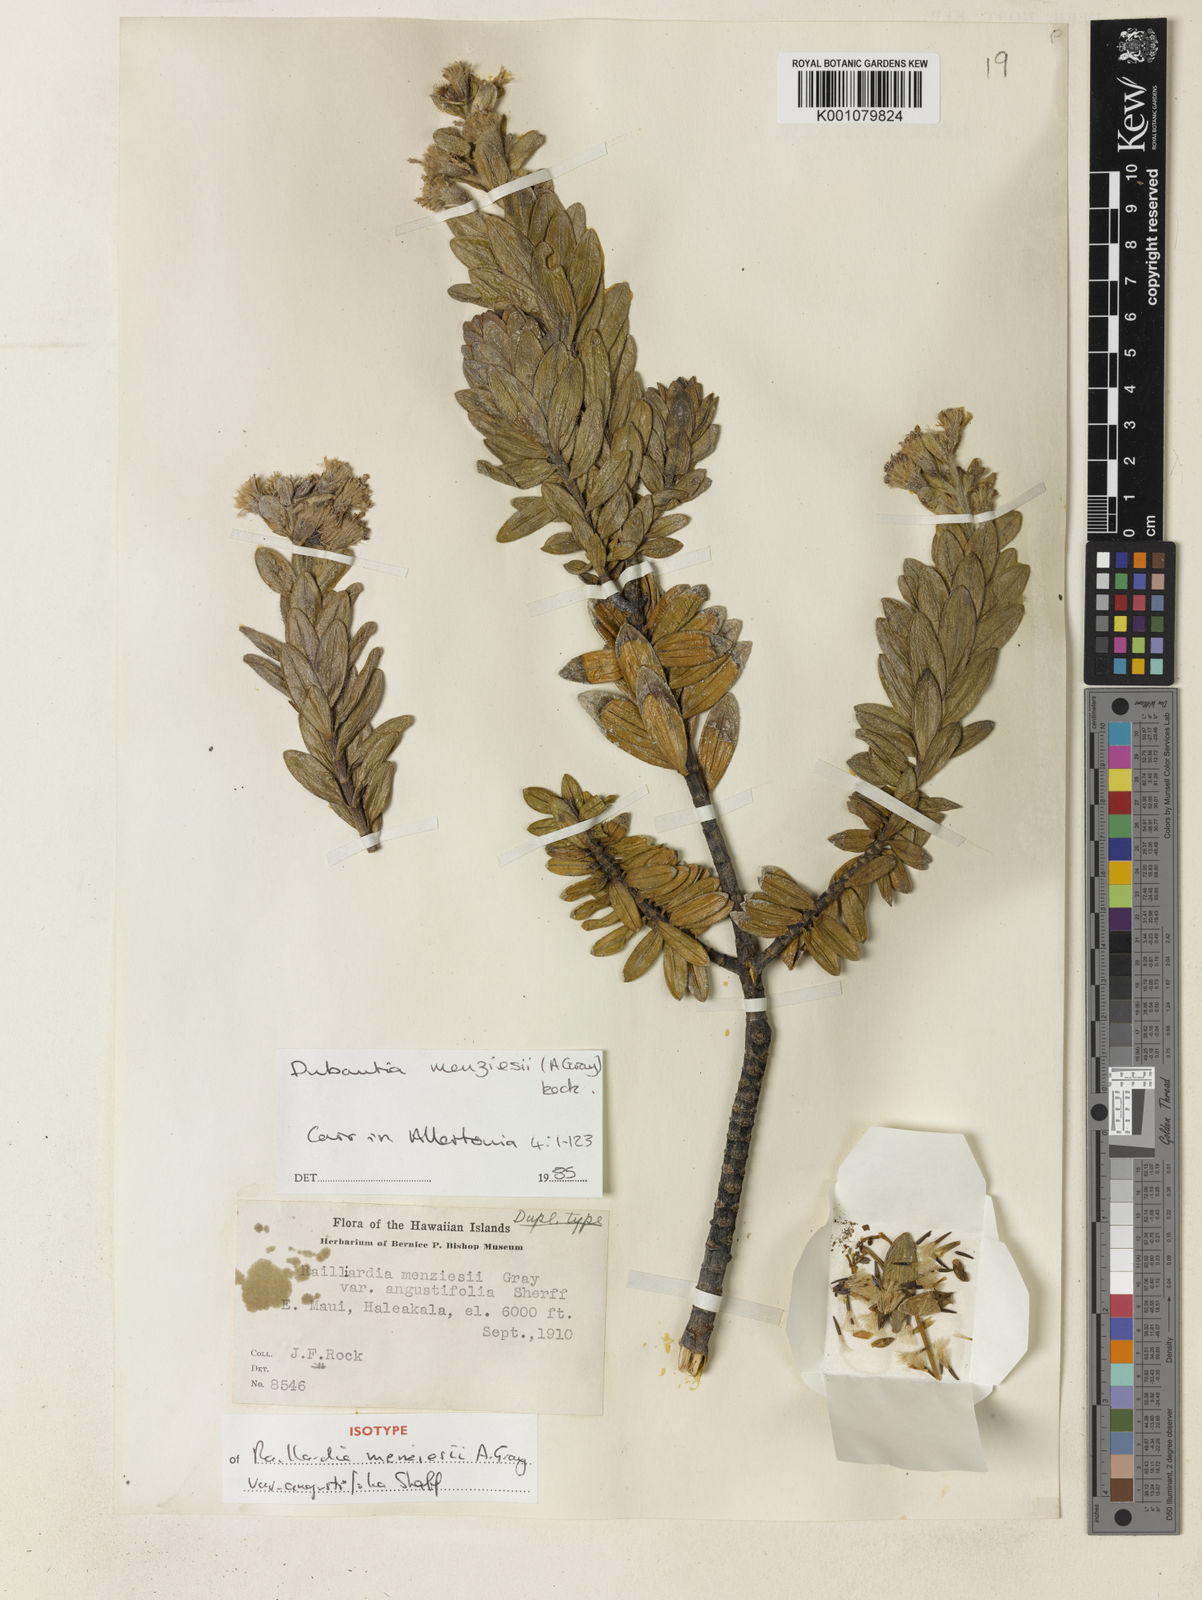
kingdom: Plantae
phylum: Tracheophyta
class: Magnoliopsida
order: Asterales
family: Asteraceae
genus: Dubautia
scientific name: Dubautia menziesii
